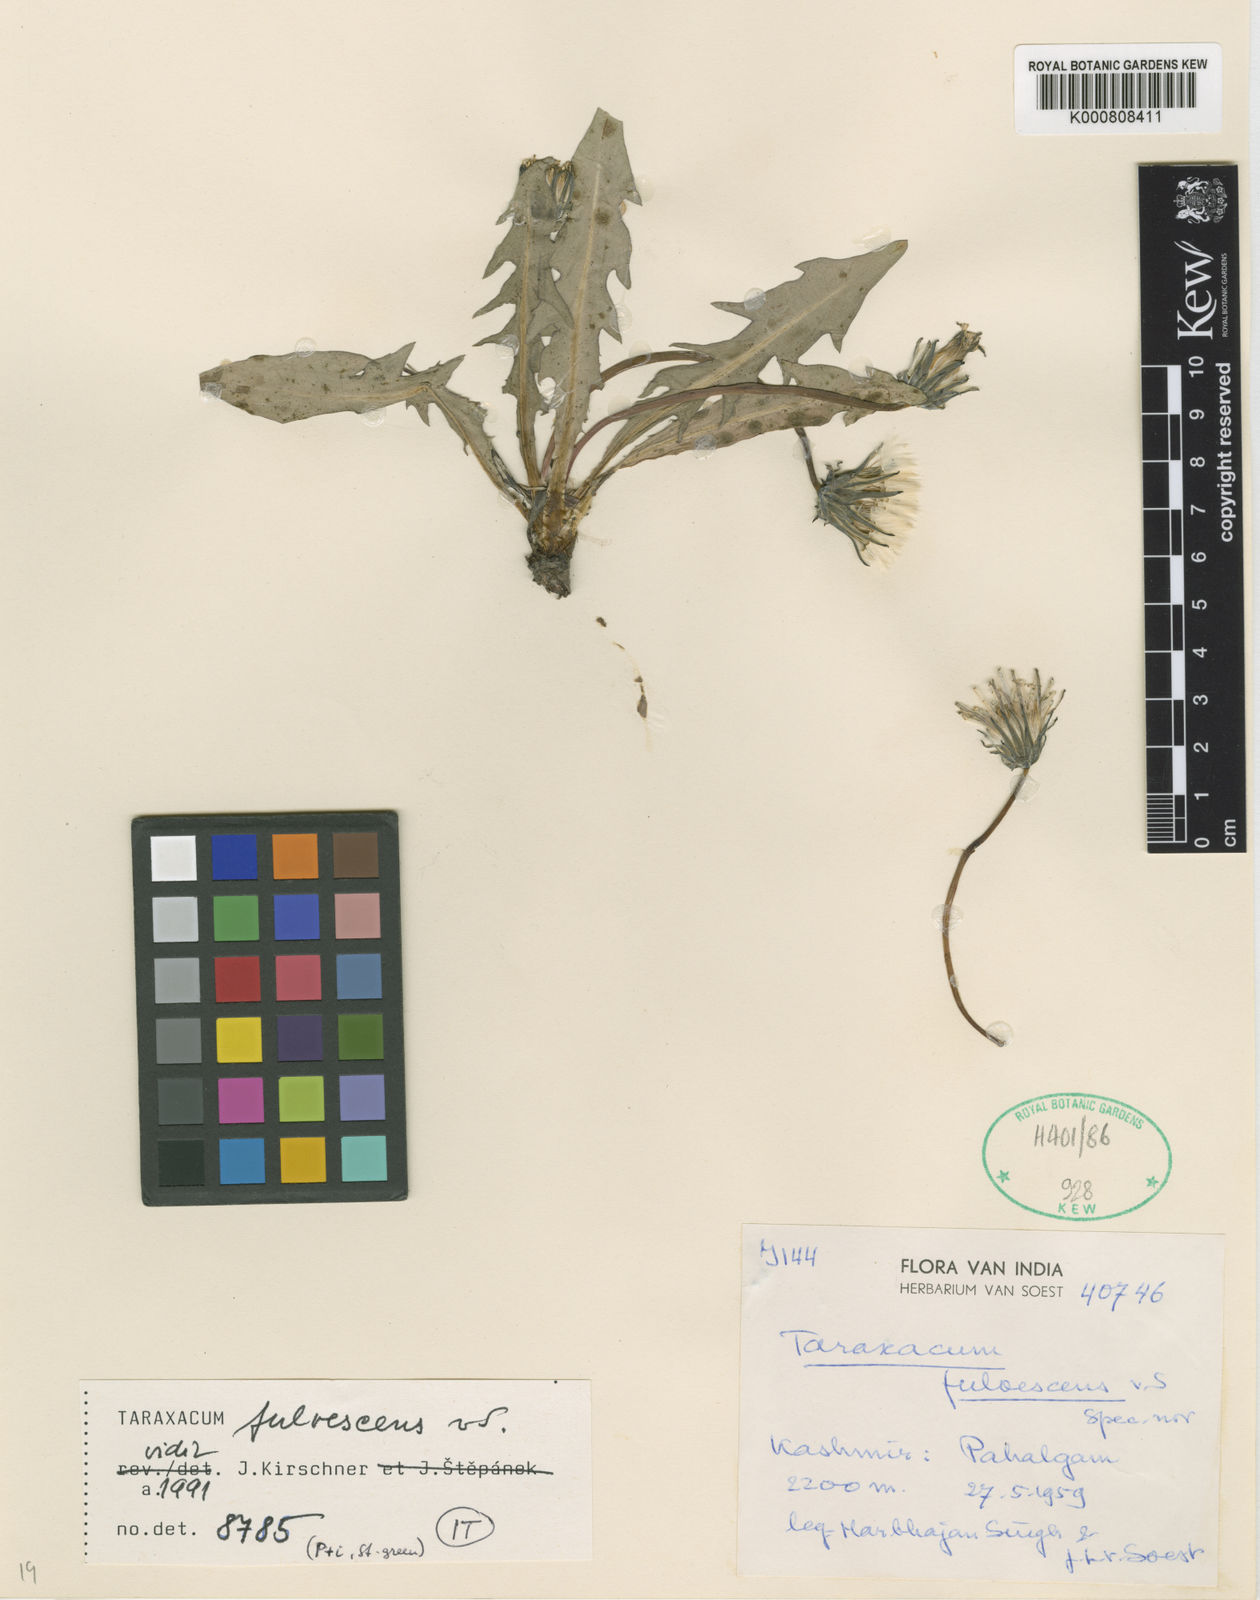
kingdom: Plantae
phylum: Tracheophyta
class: Magnoliopsida
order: Asterales
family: Asteraceae
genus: Taraxacum
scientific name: Taraxacum
